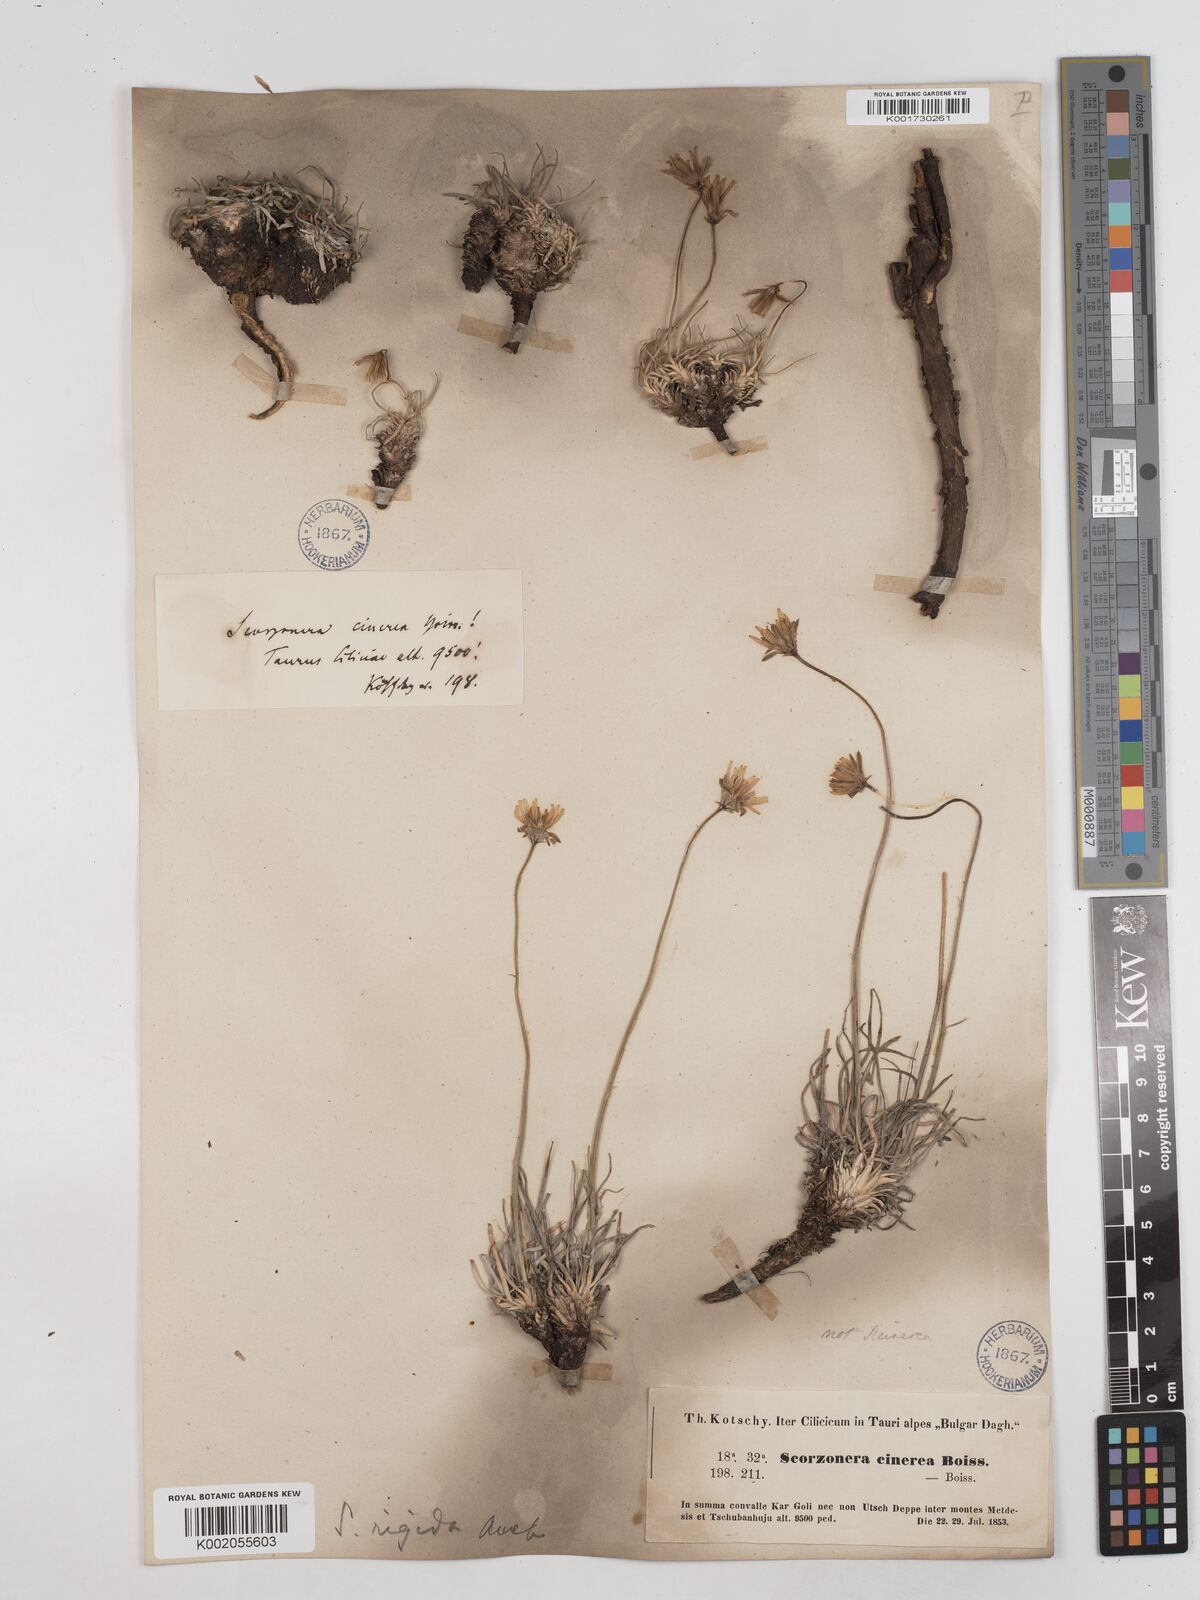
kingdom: Plantae
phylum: Tracheophyta
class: Magnoliopsida
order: Asterales
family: Asteraceae
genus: Goekyighitia
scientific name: Goekyighitia rigida
